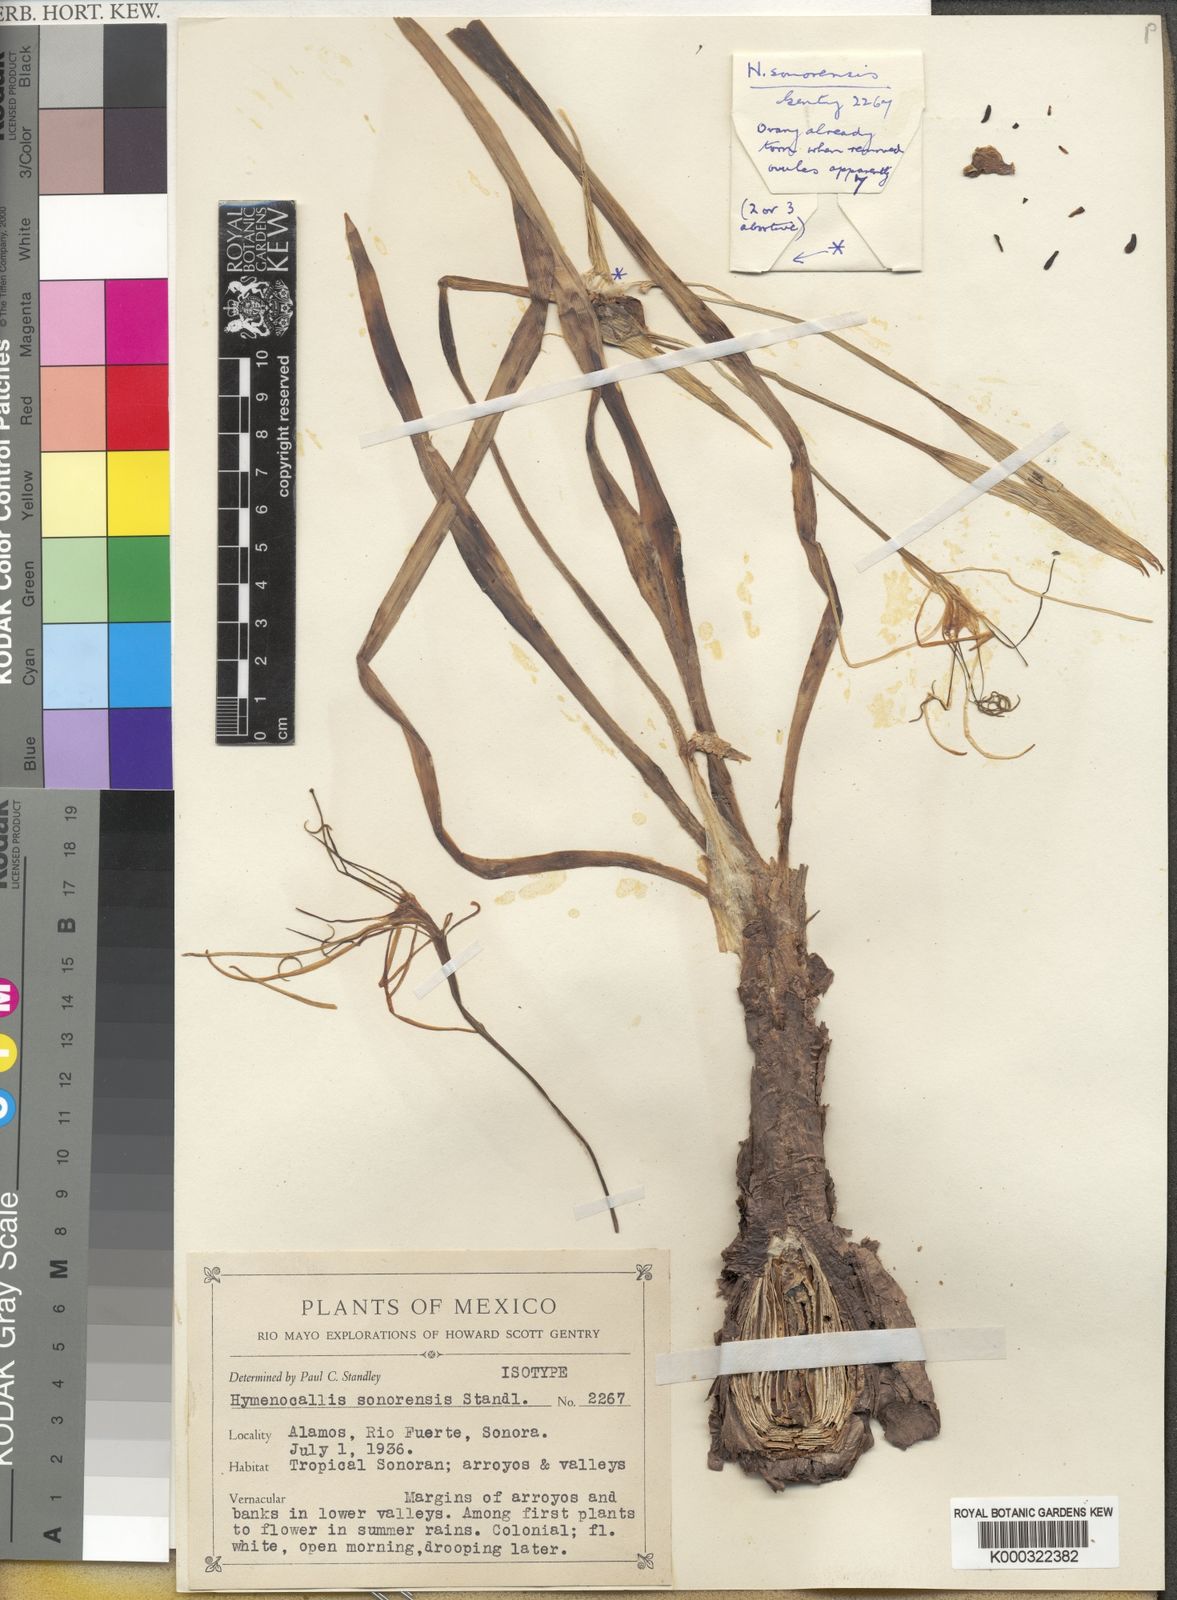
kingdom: Plantae
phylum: Tracheophyta
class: Liliopsida
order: Asparagales
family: Amaryllidaceae
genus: Hymenocallis
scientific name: Hymenocallis sonorensis
